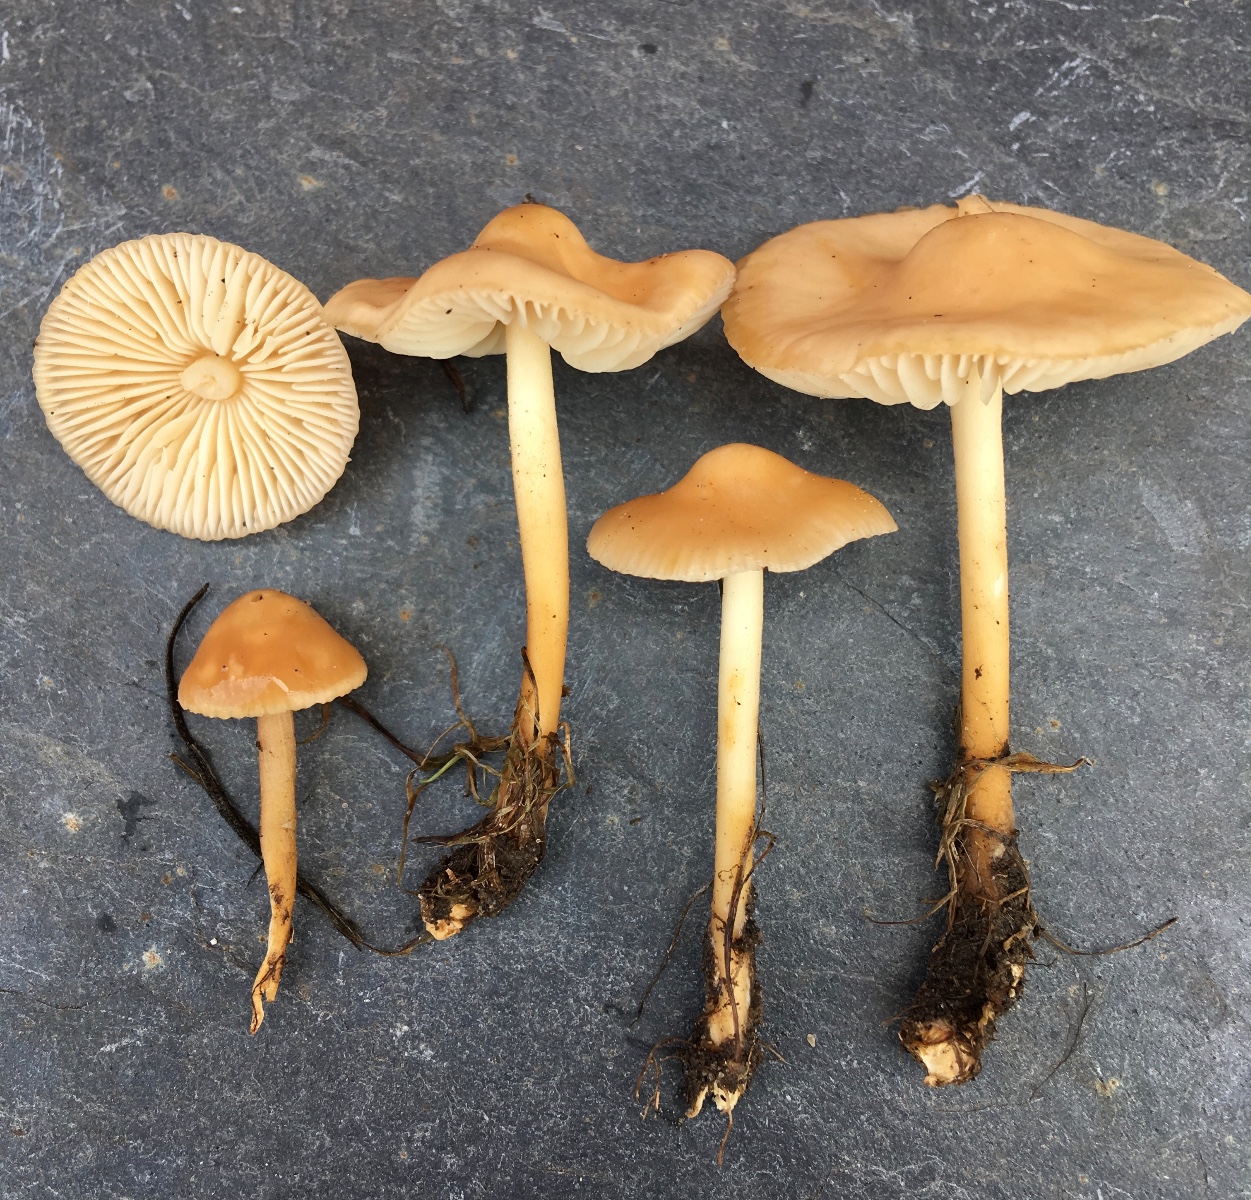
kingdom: Fungi
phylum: Basidiomycota
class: Agaricomycetes
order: Agaricales
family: Marasmiaceae
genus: Marasmius
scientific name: Marasmius oreades
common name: elledans-bruskhat
